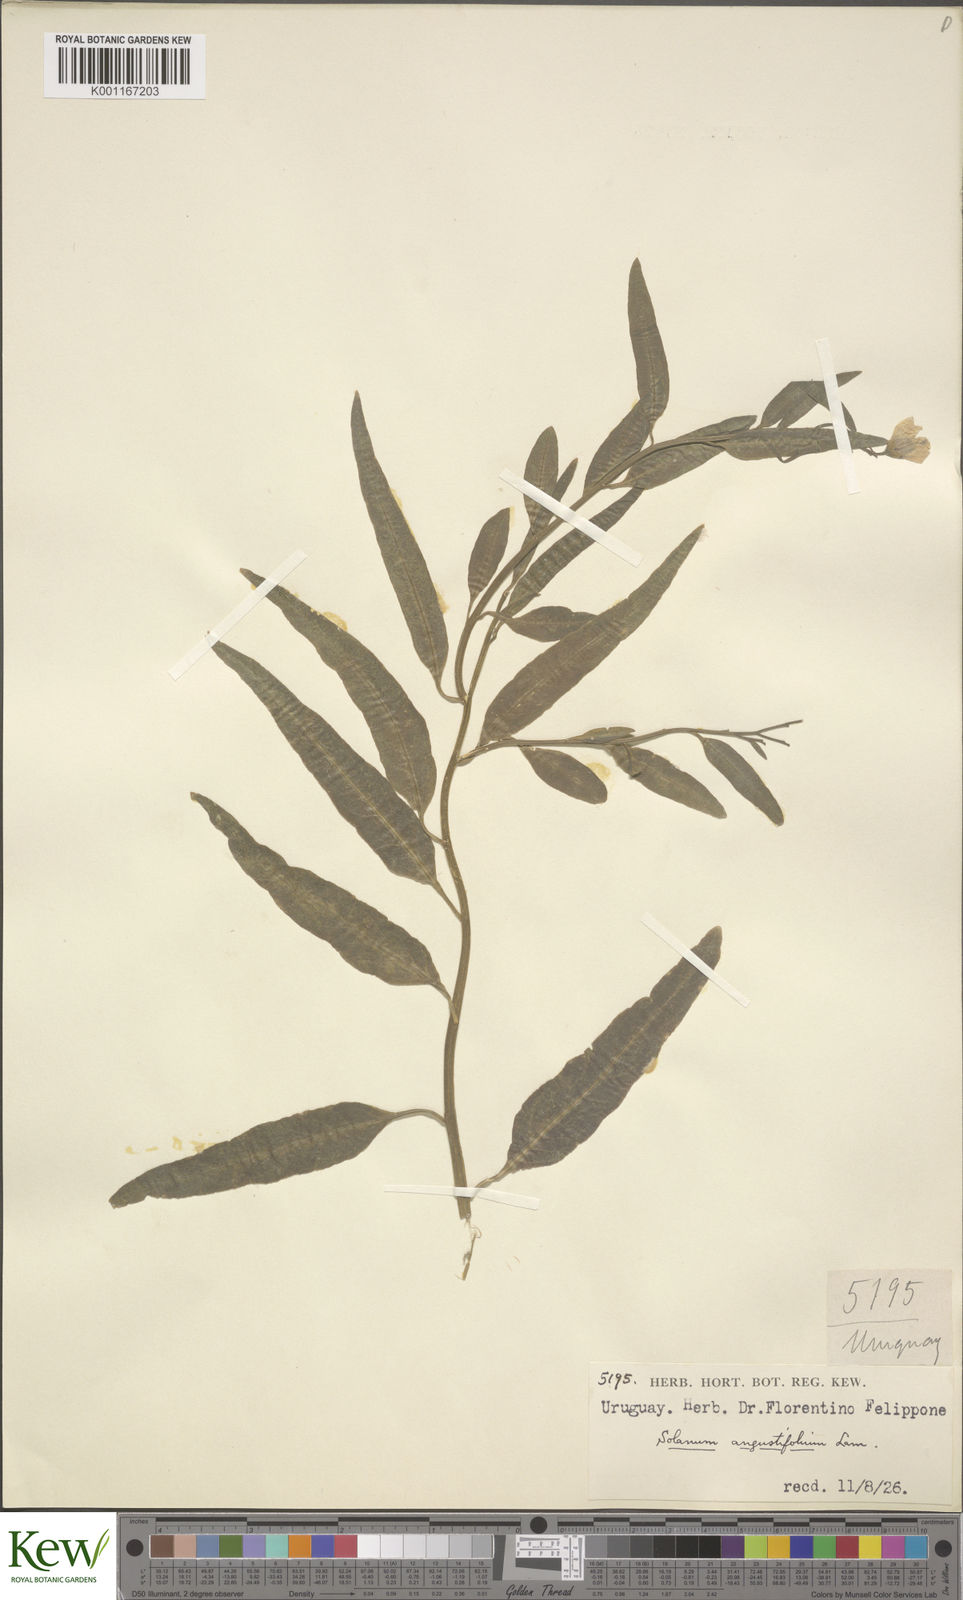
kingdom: Plantae
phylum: Tracheophyta
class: Magnoliopsida
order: Solanales
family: Solanaceae
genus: Solanum
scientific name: Solanum amygdalifolium
